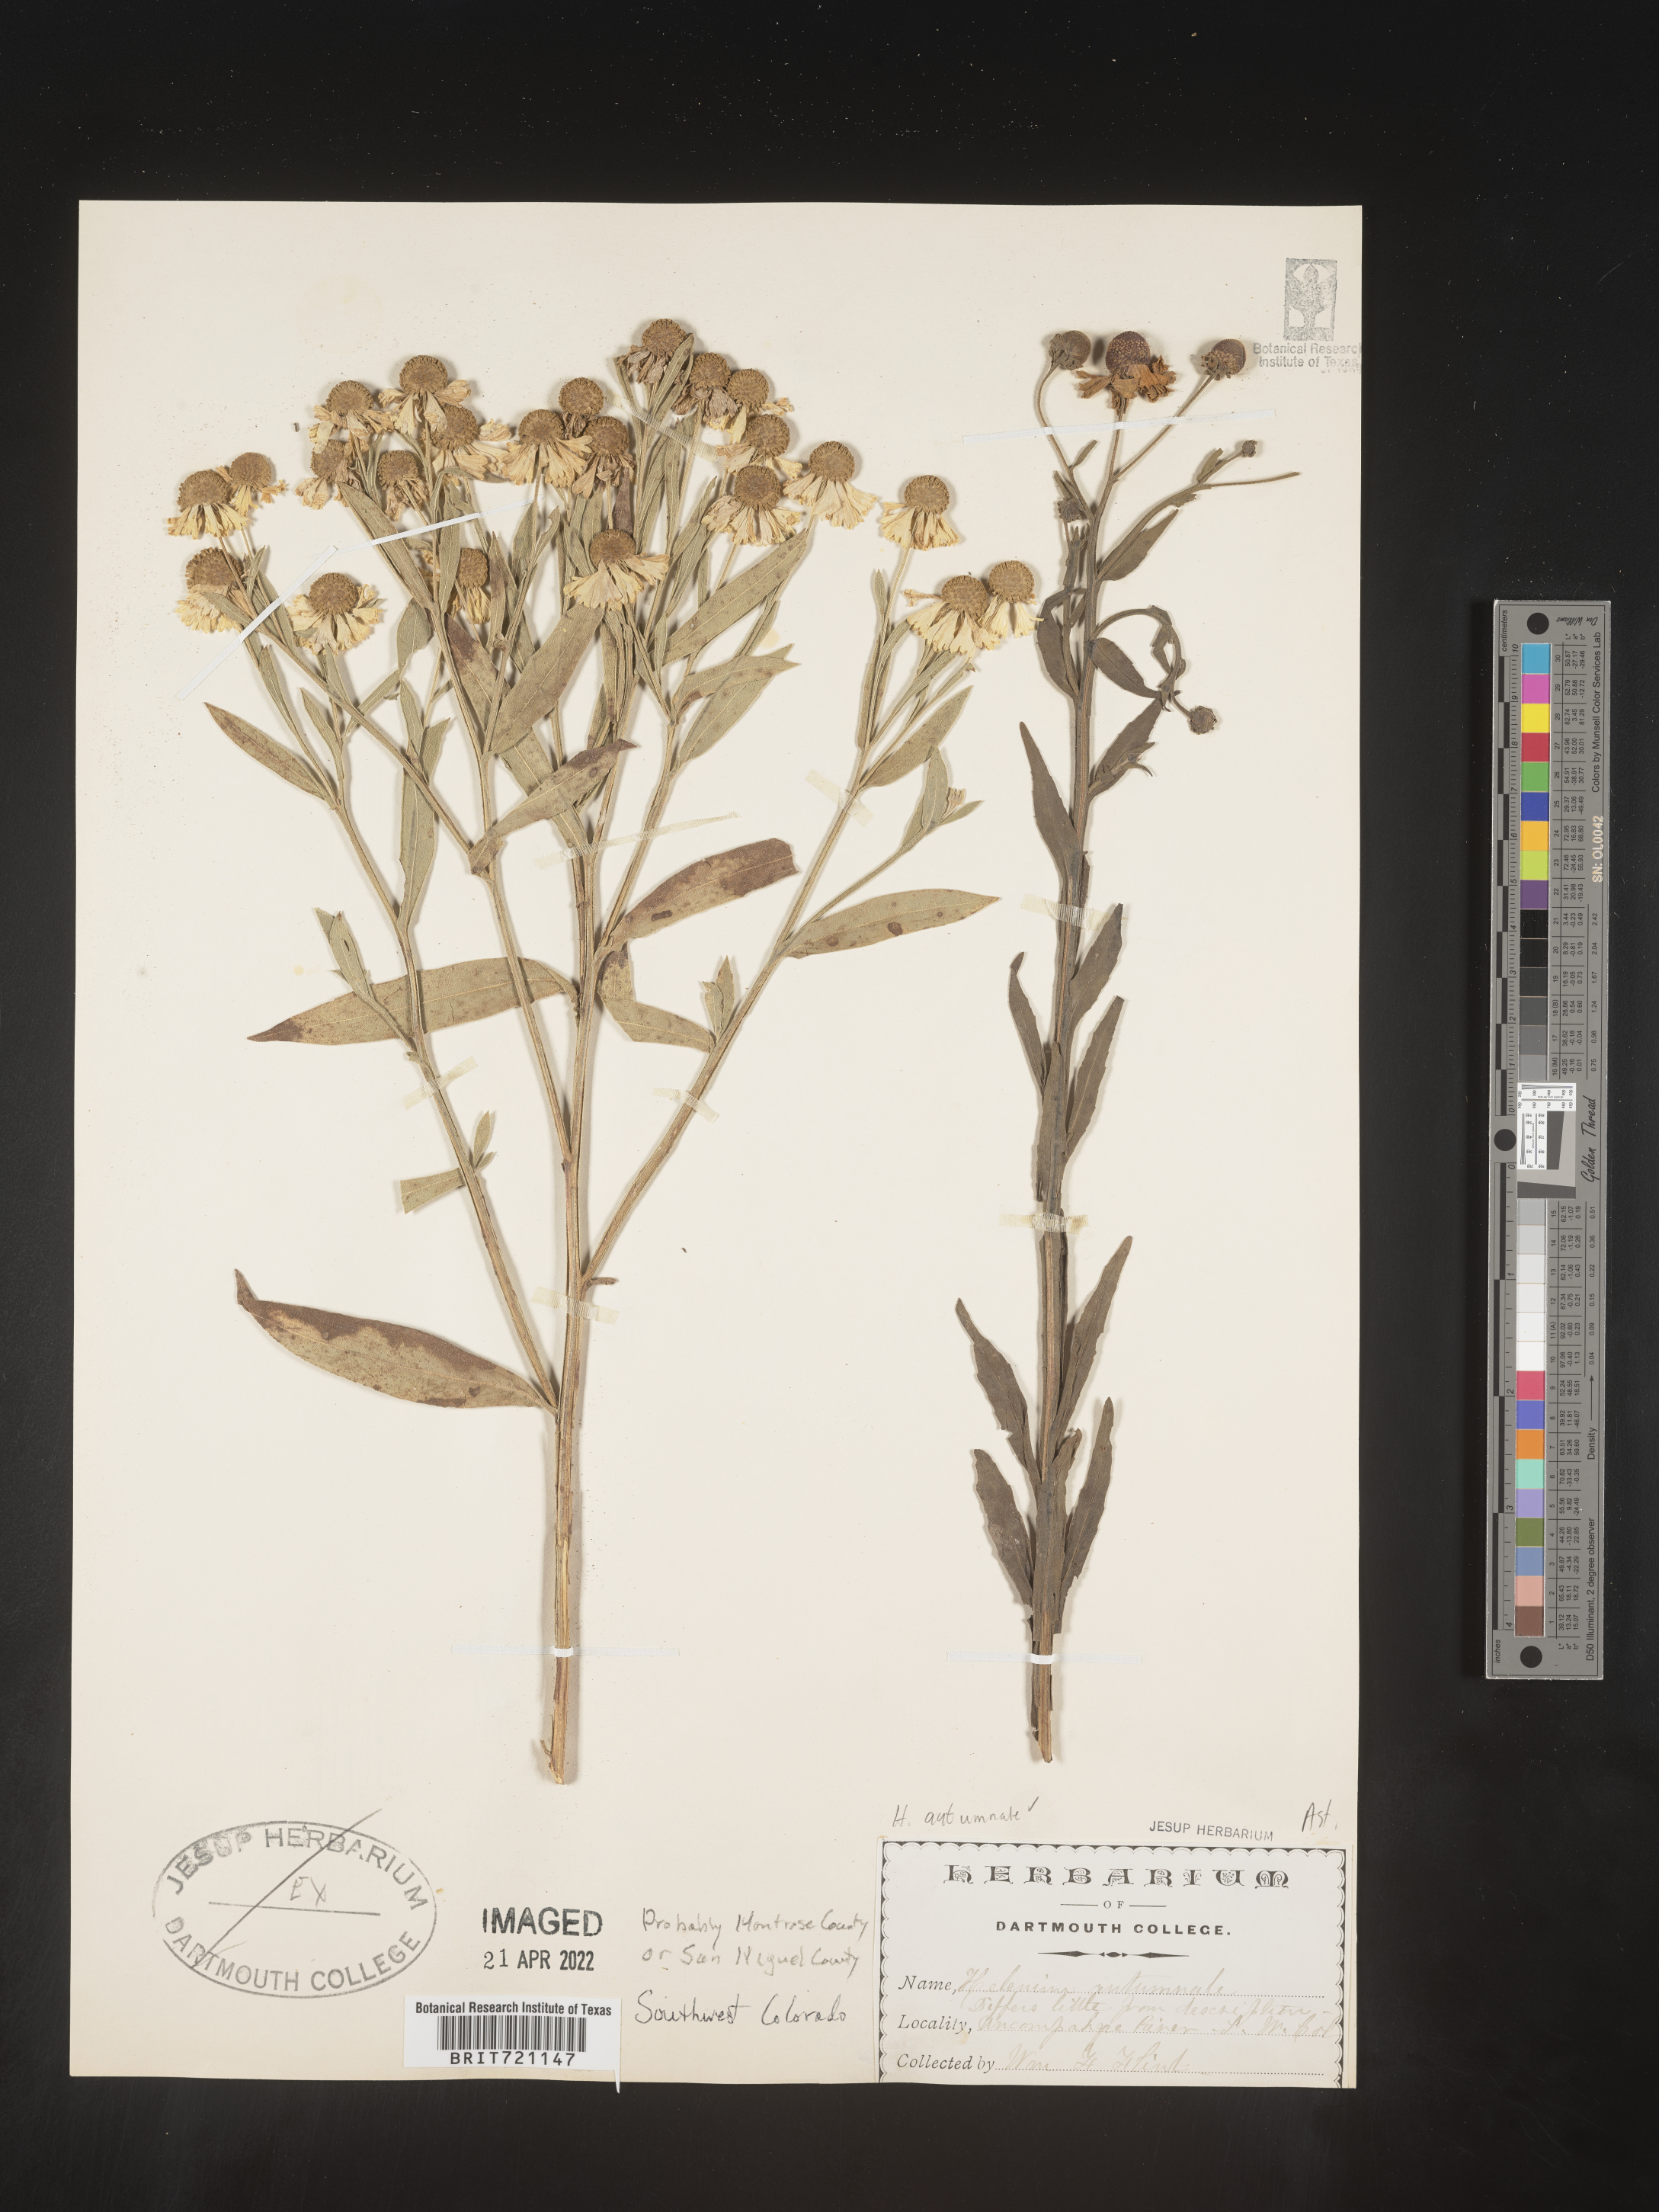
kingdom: Plantae
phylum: Tracheophyta
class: Magnoliopsida
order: Asterales
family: Asteraceae
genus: Helenium
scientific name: Helenium autumnale
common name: Sneezeweed
